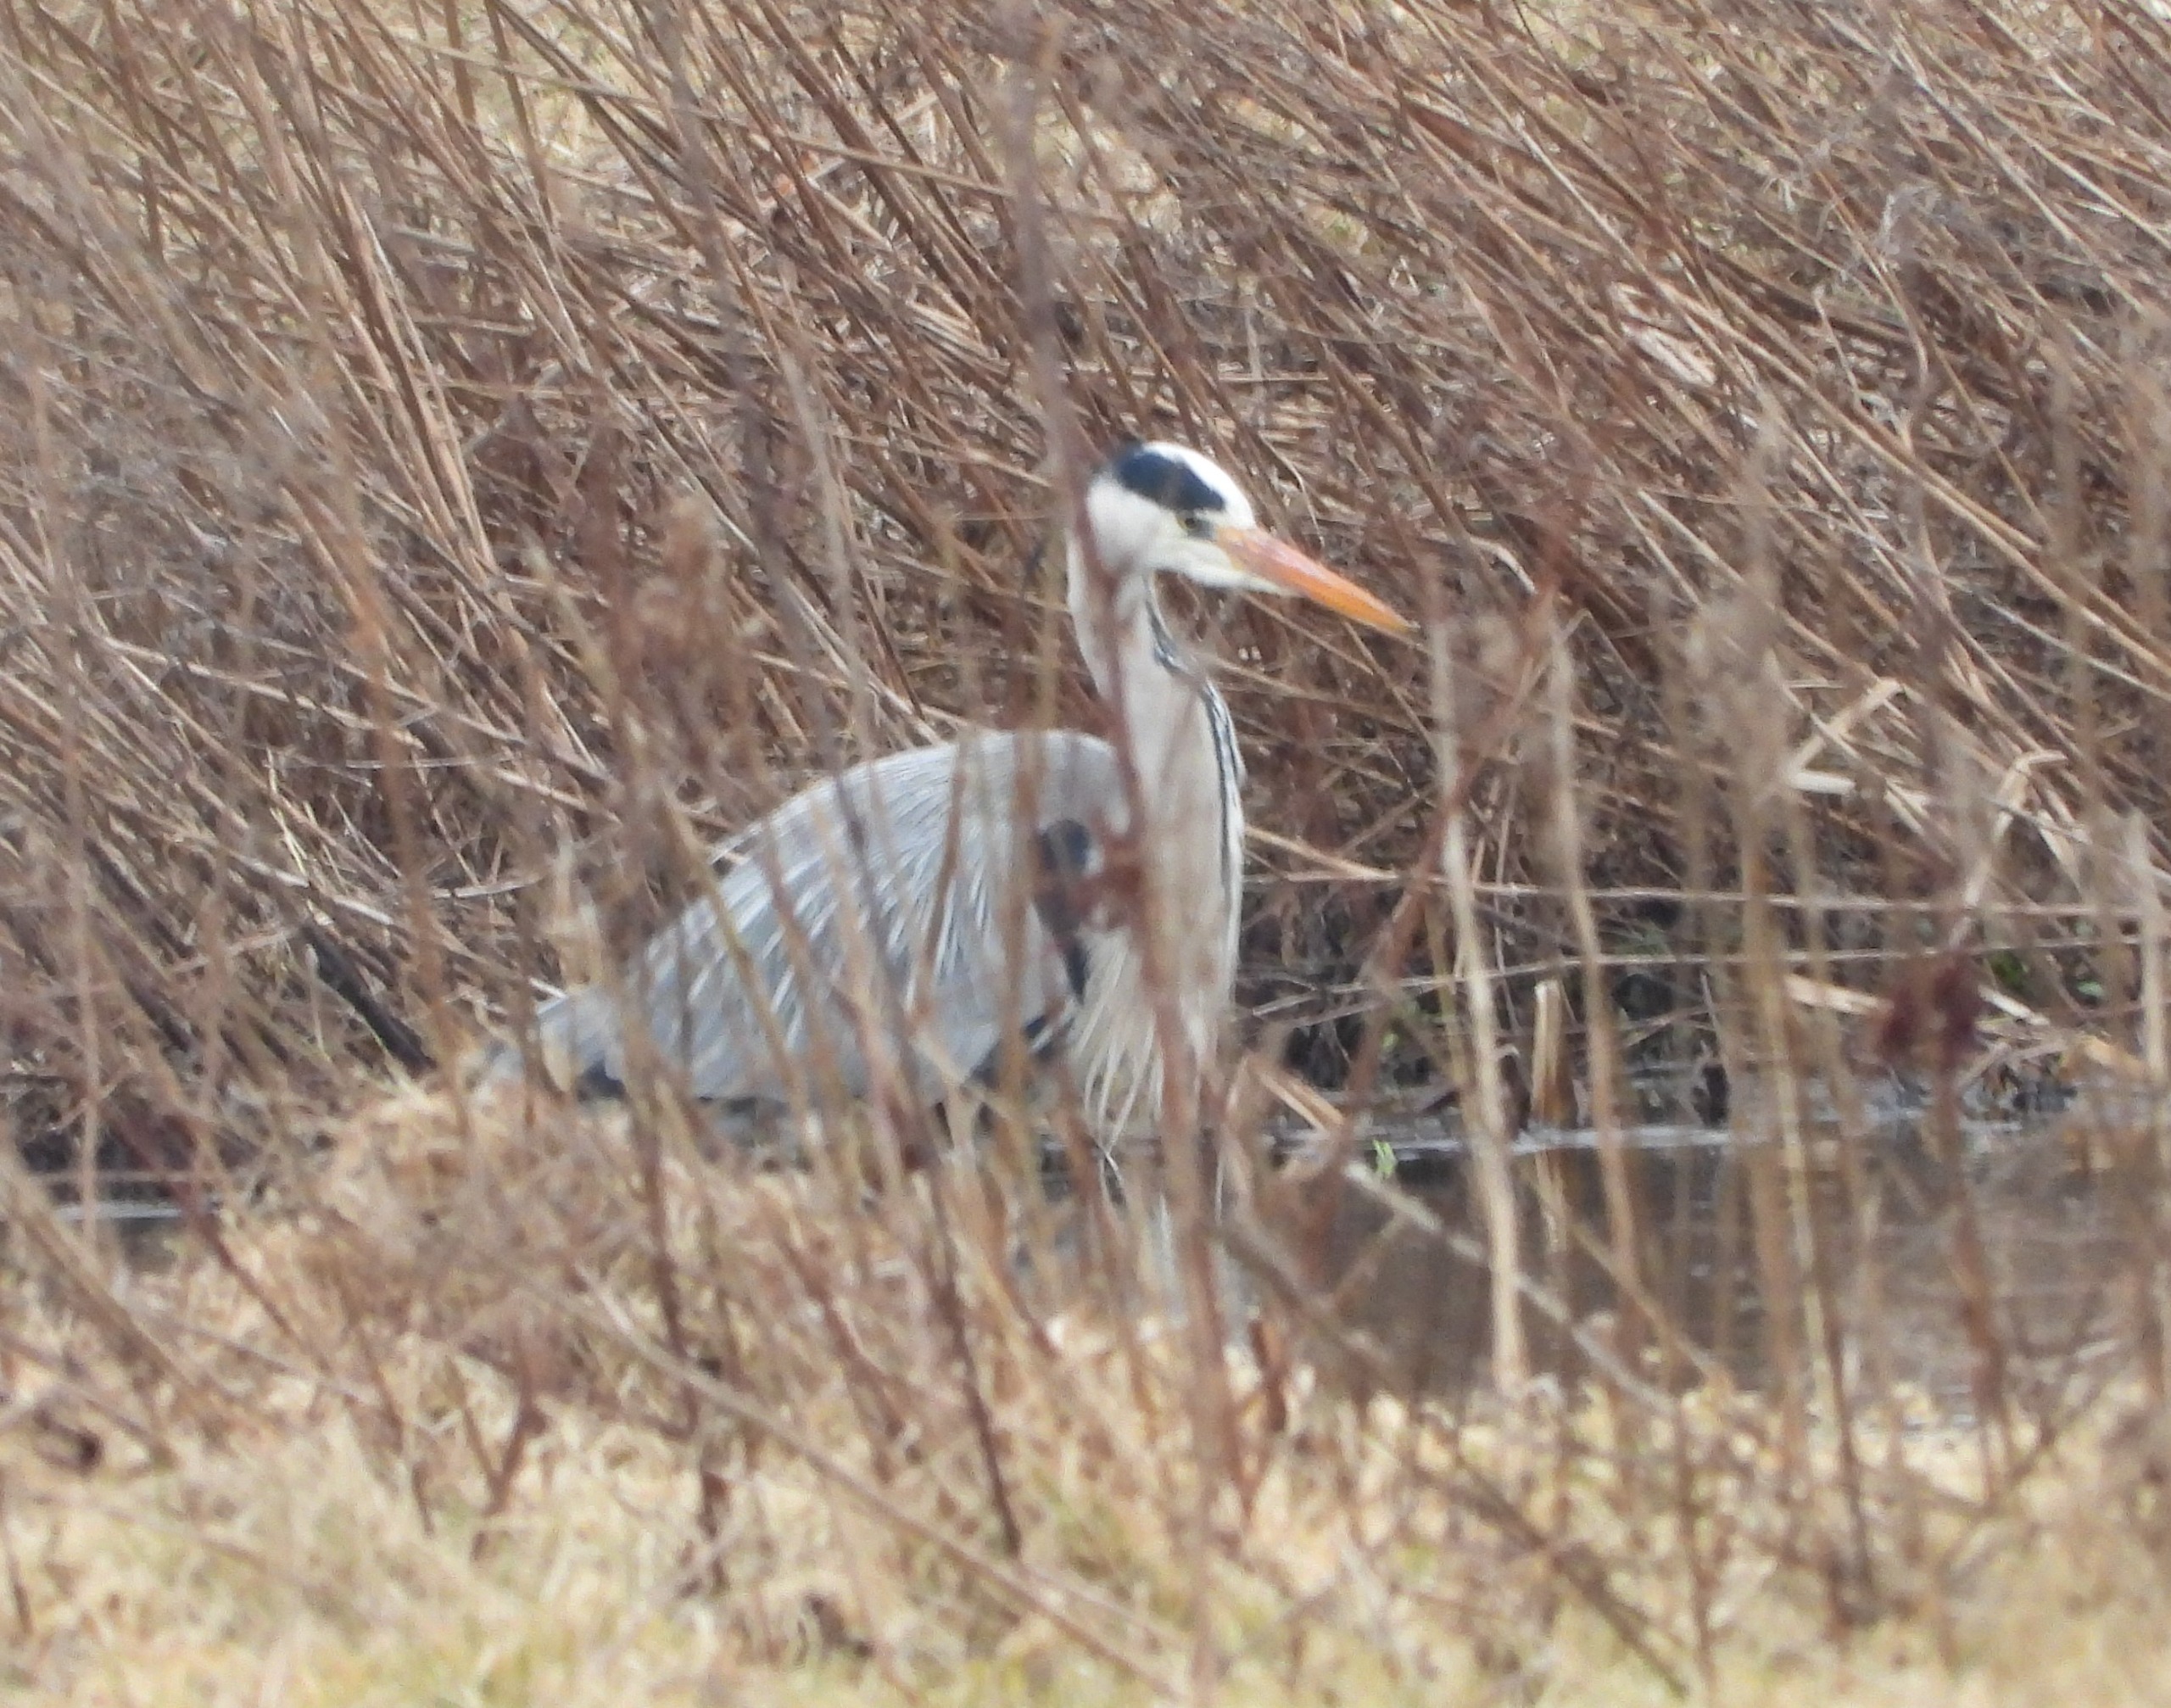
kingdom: Animalia
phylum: Chordata
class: Aves
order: Pelecaniformes
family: Ardeidae
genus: Ardea
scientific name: Ardea cinerea
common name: Fiskehejre
